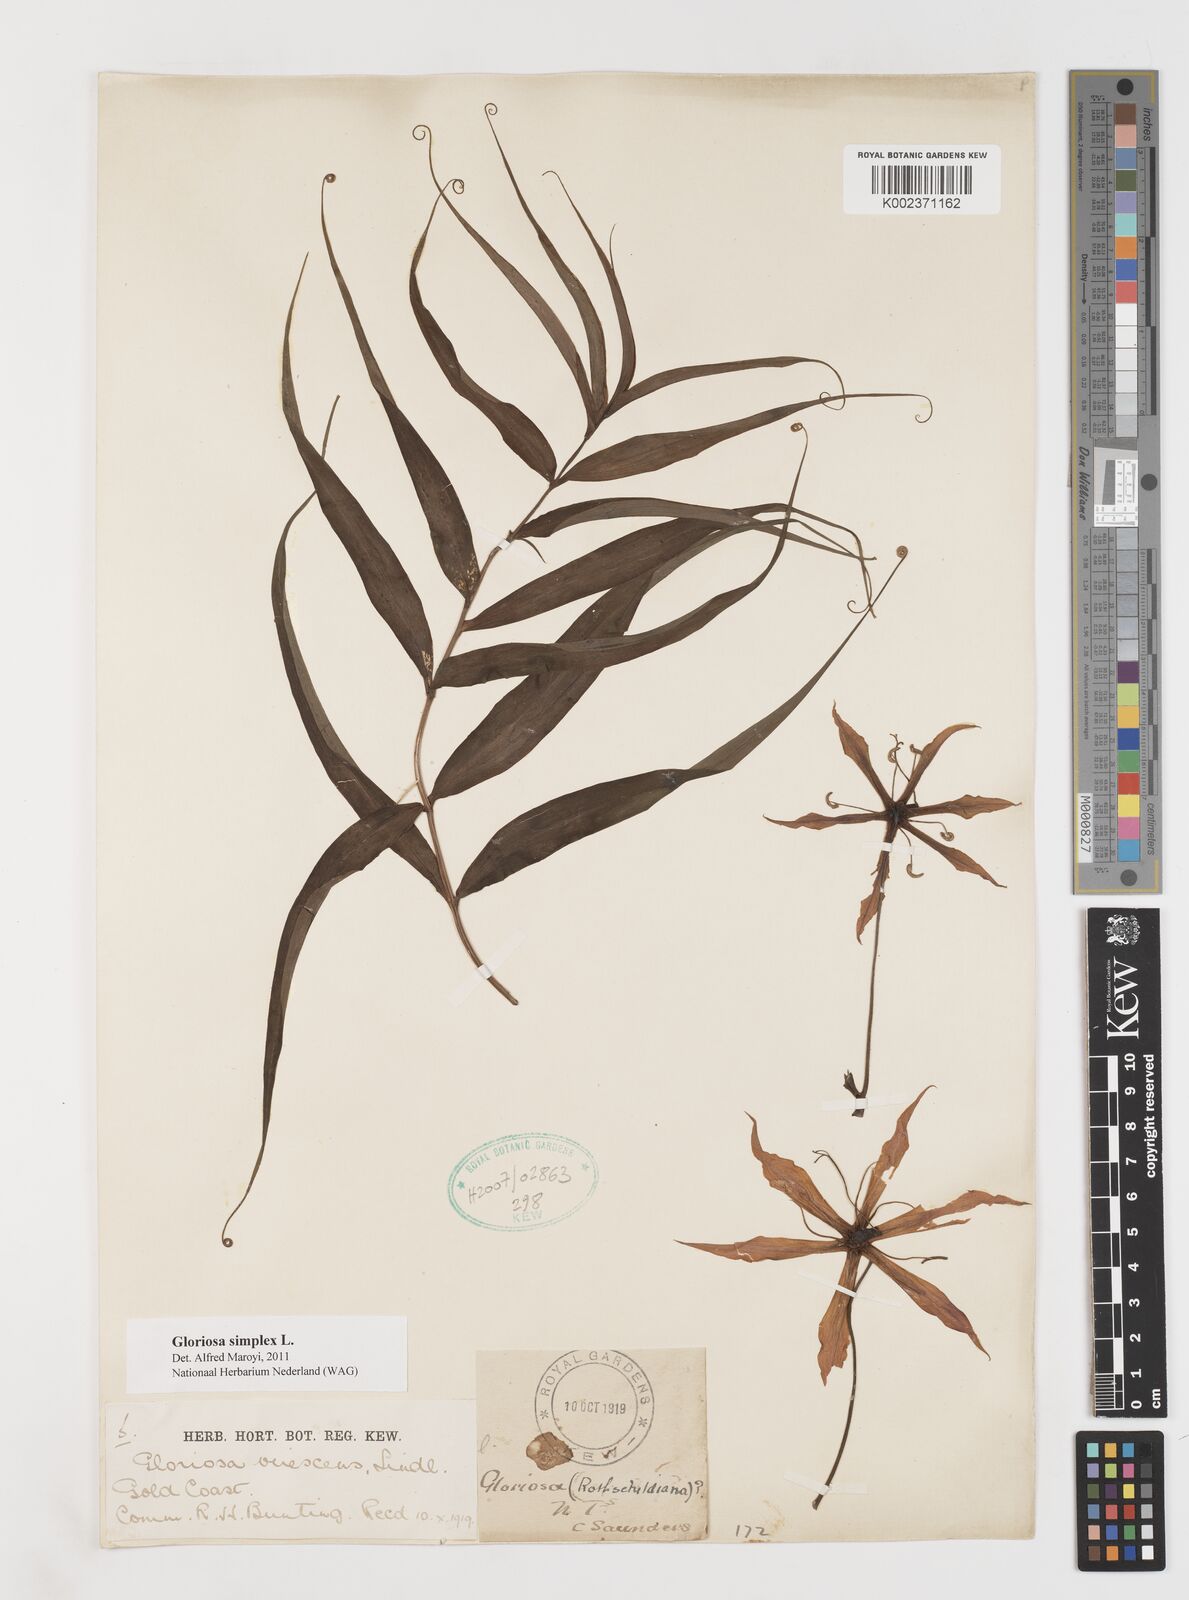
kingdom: Plantae
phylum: Tracheophyta
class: Liliopsida
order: Liliales
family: Colchicaceae
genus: Gloriosa
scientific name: Gloriosa simplex
